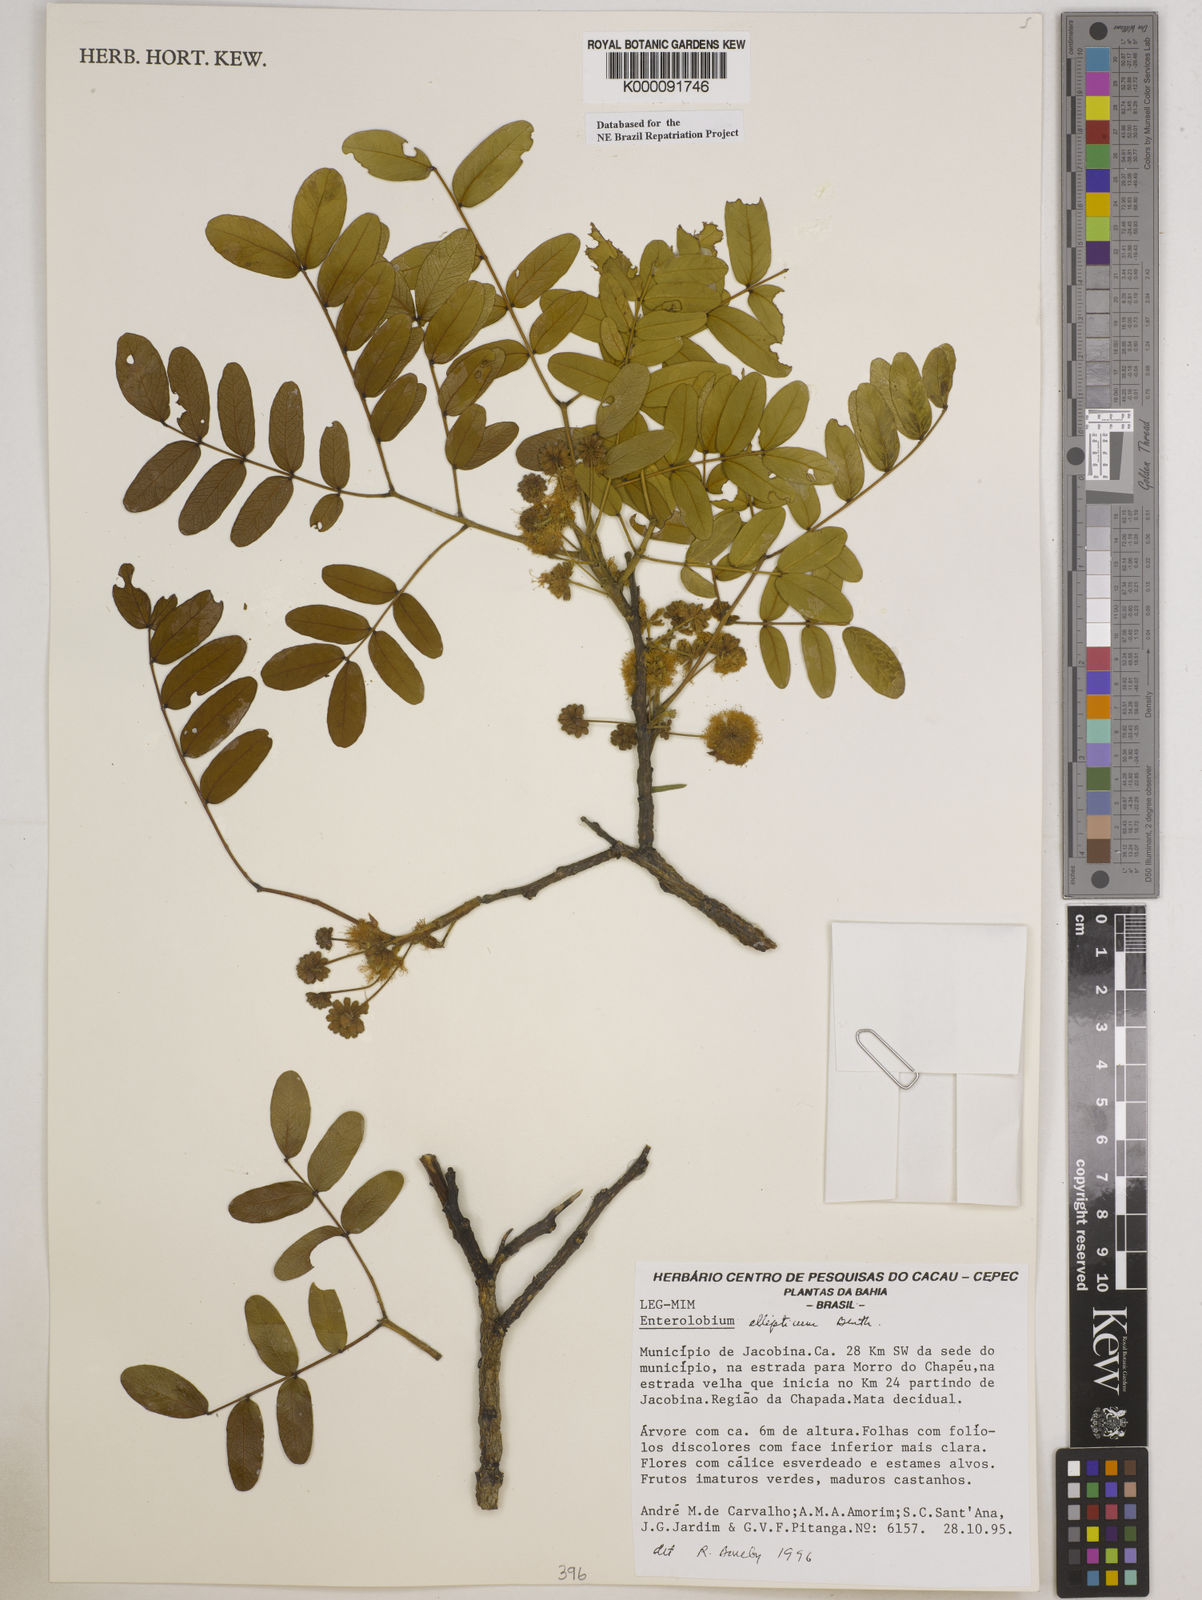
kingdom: Plantae
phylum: Tracheophyta
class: Magnoliopsida
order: Fabales
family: Fabaceae
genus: Enterolobium
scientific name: Enterolobium gummiferum
